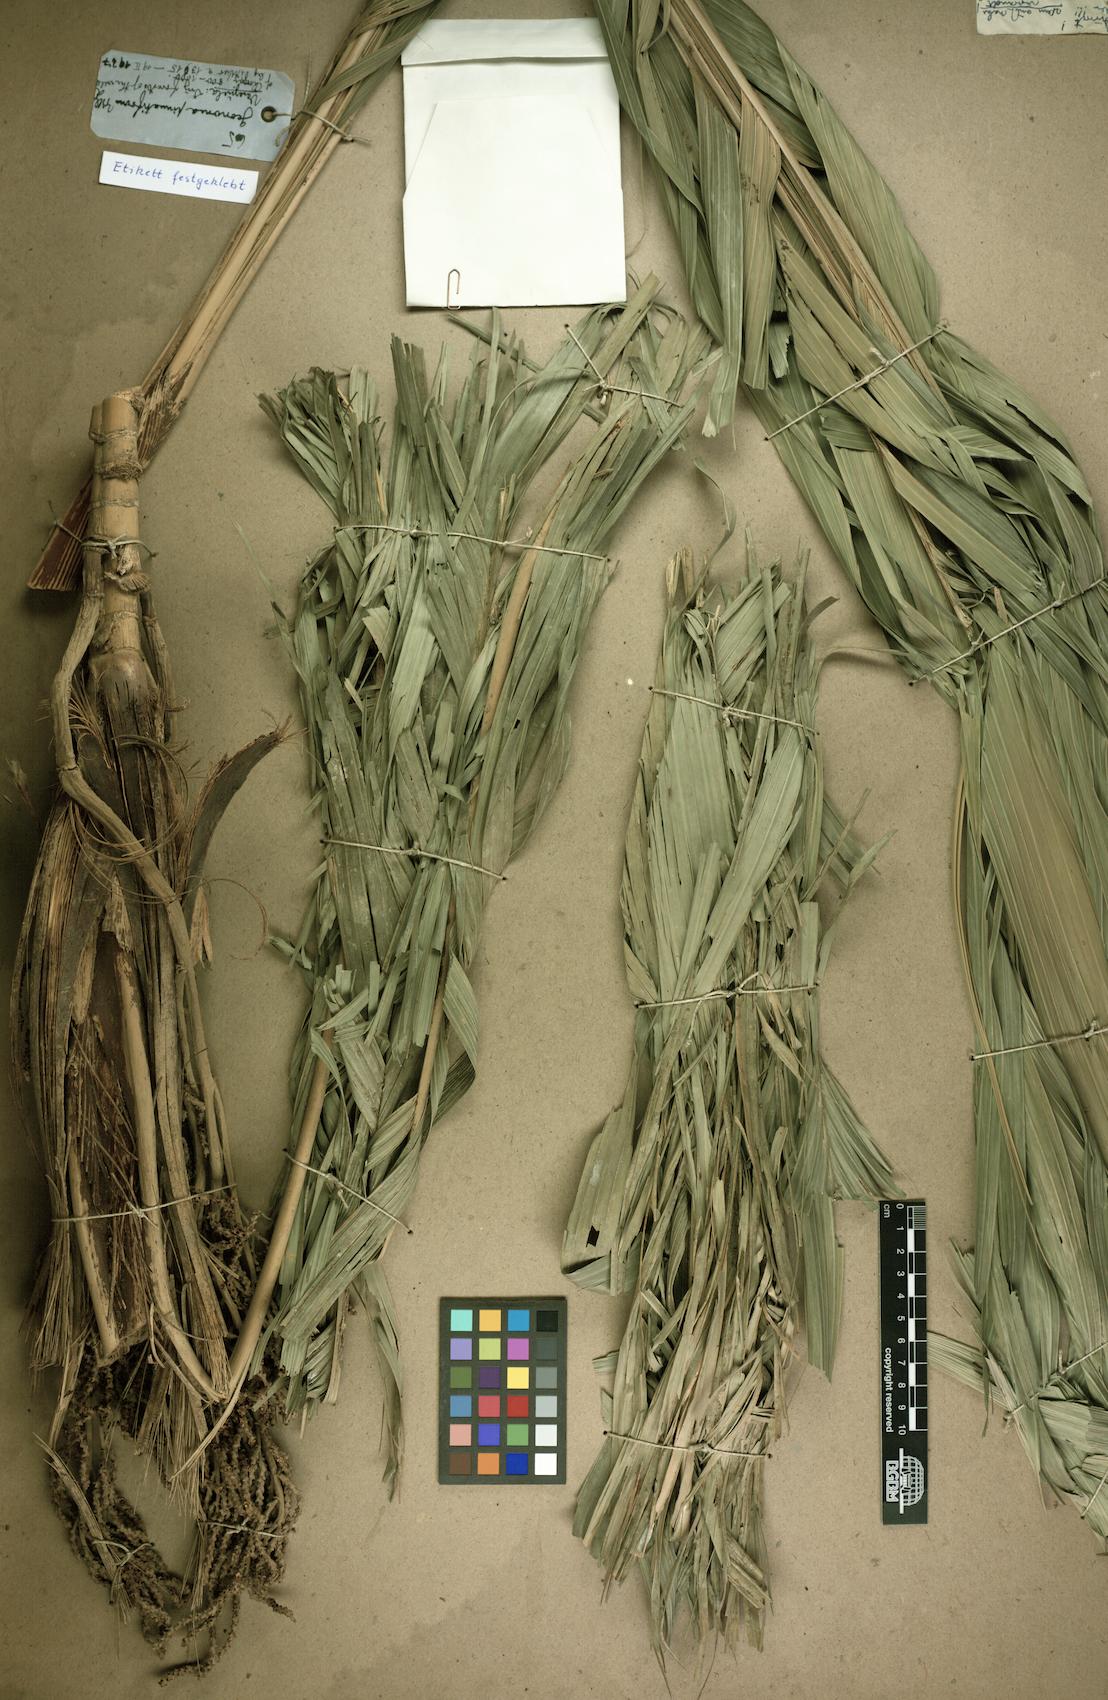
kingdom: Plantae
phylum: Tracheophyta
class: Liliopsida
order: Arecales
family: Arecaceae
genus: Geonoma
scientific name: Geonoma pinnatifrons
